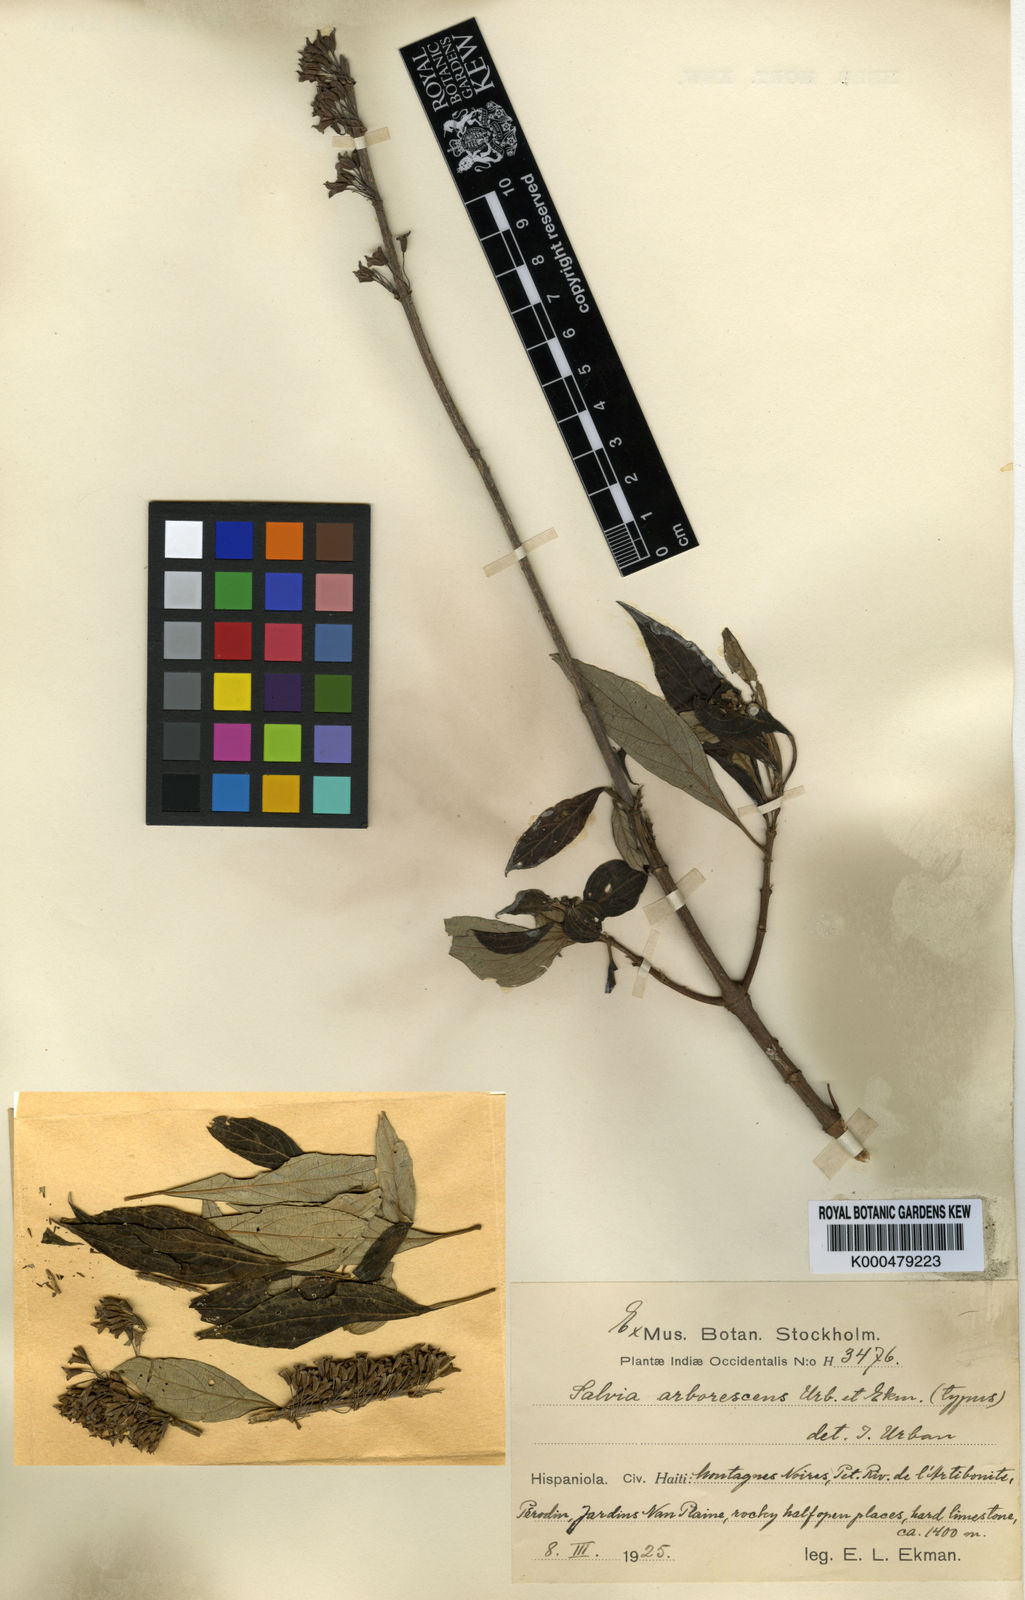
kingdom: Plantae
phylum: Tracheophyta
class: Magnoliopsida
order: Lamiales
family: Lamiaceae
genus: Salvia
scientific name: Salvia arborescens
